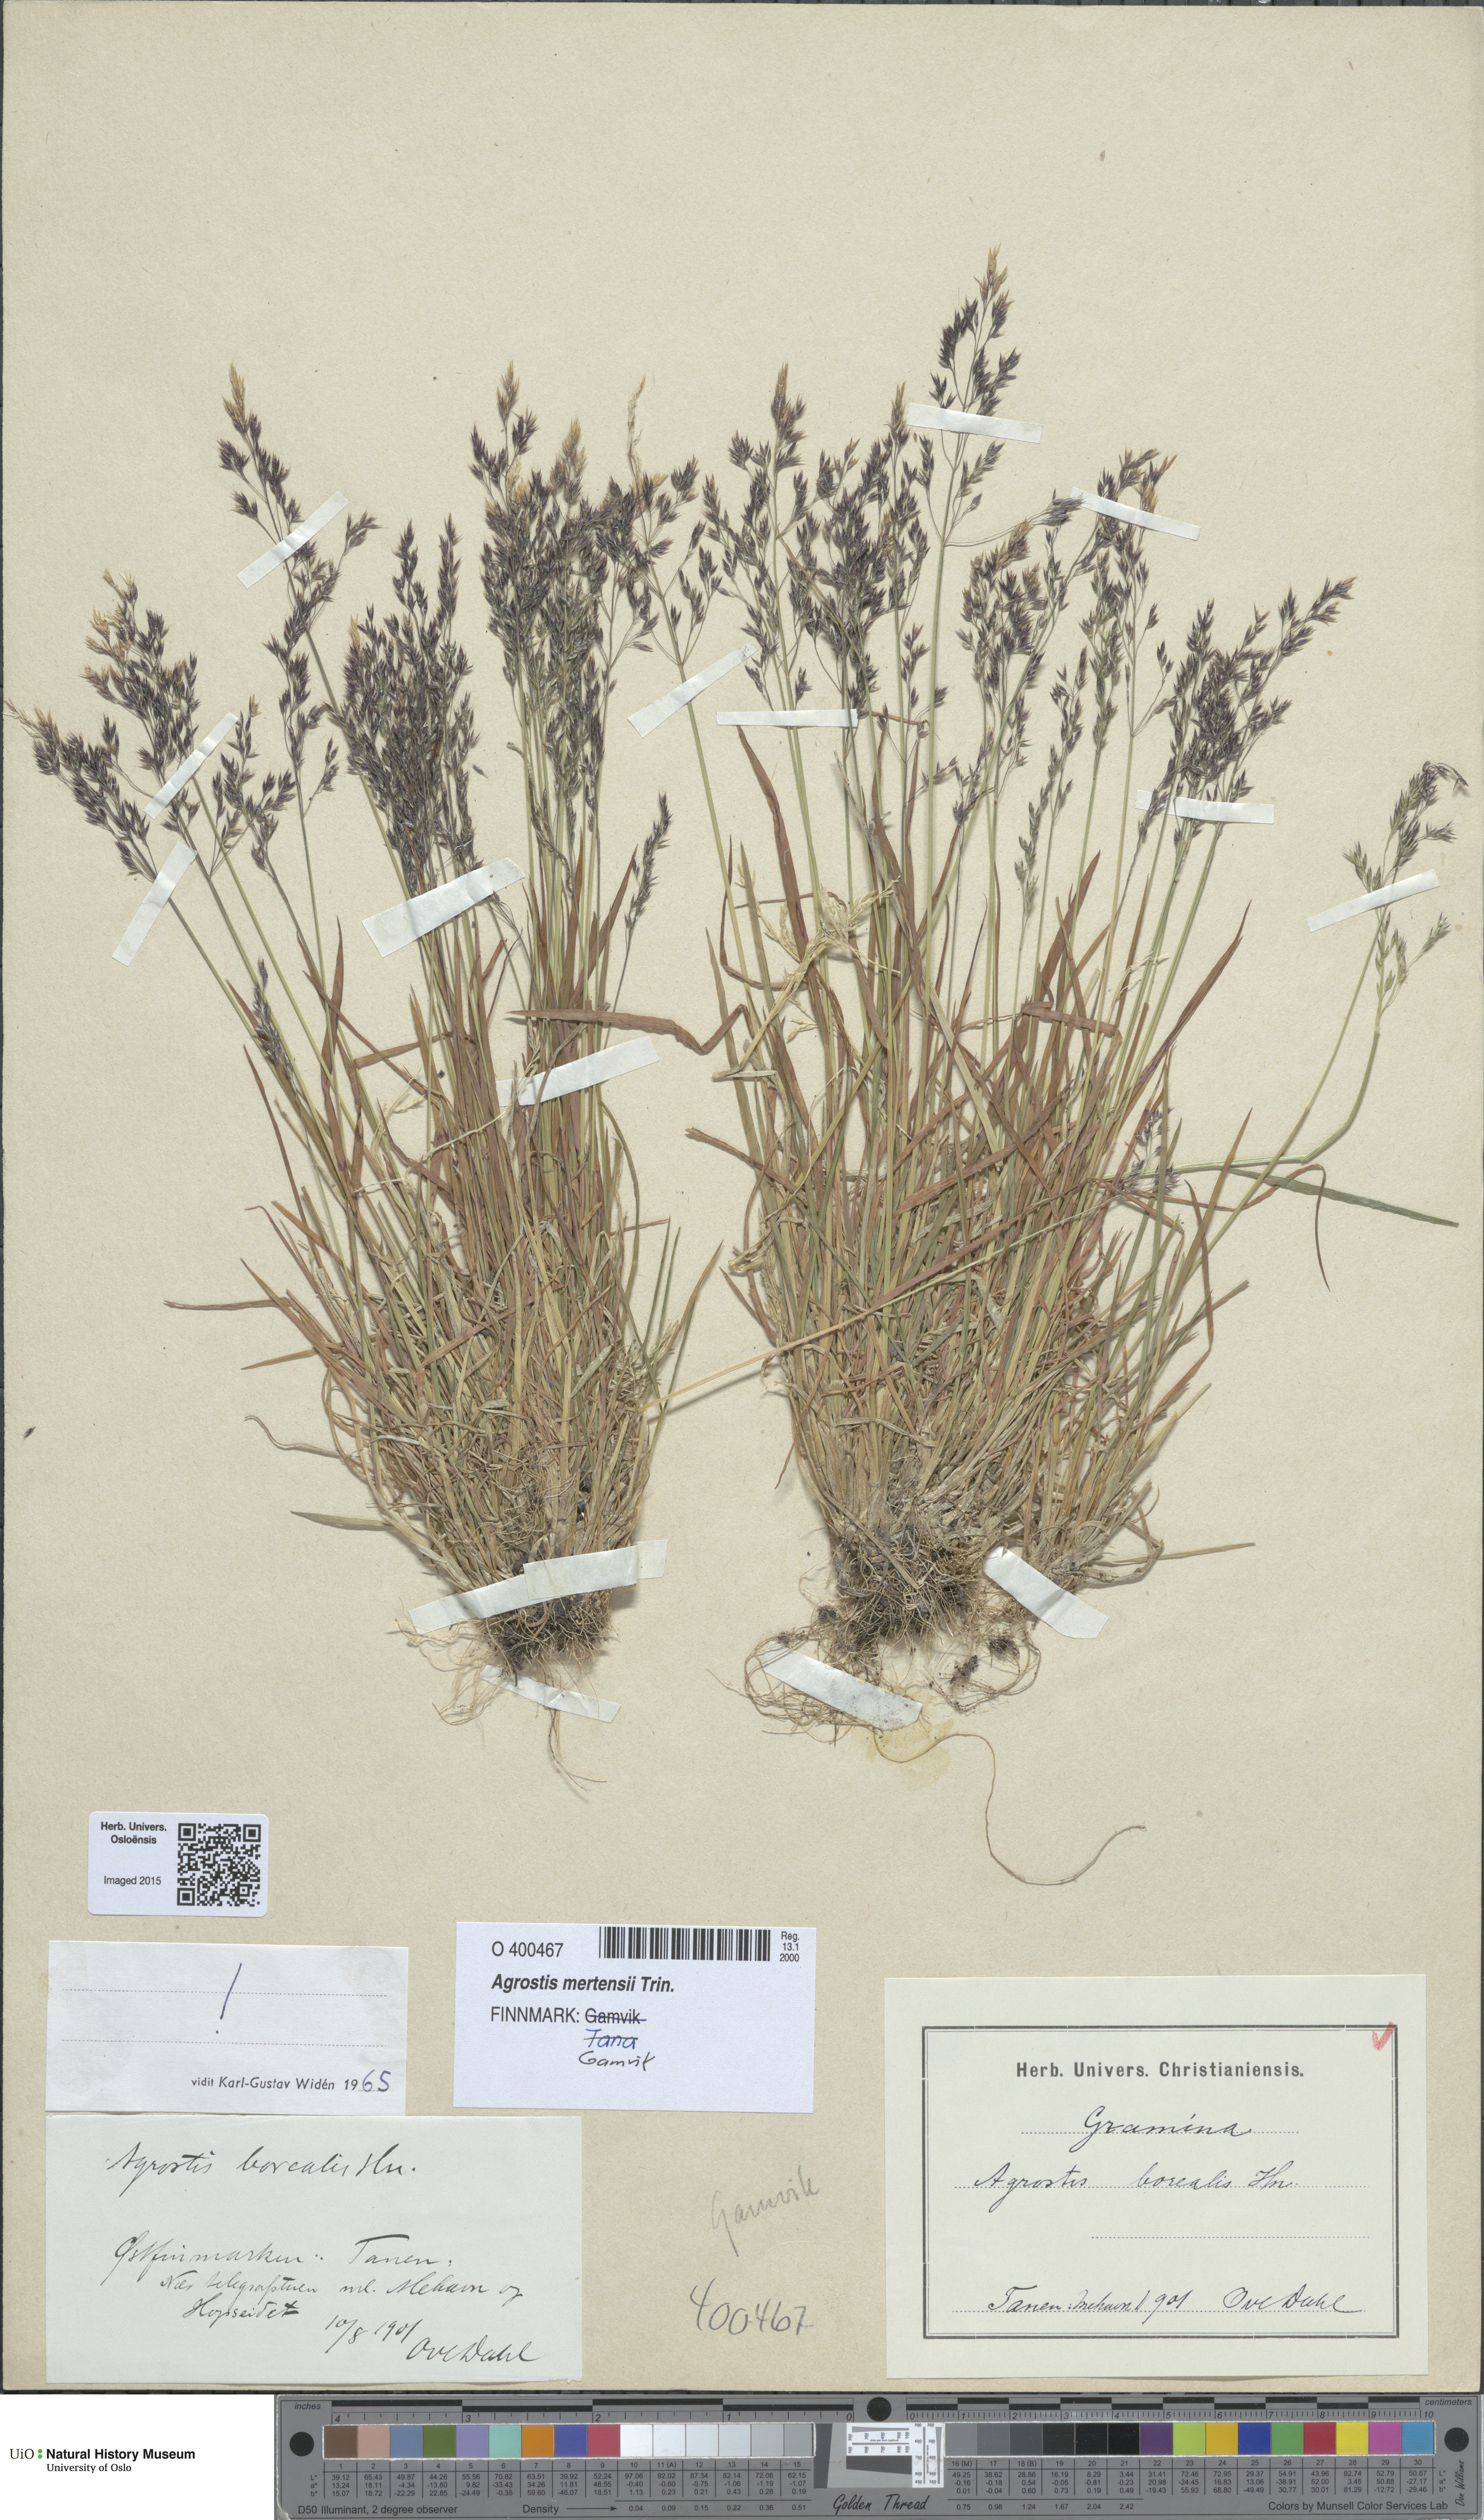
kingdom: Plantae
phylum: Tracheophyta
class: Liliopsida
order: Poales
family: Poaceae
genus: Agrostis
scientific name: Agrostis mertensii
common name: Northern bent
